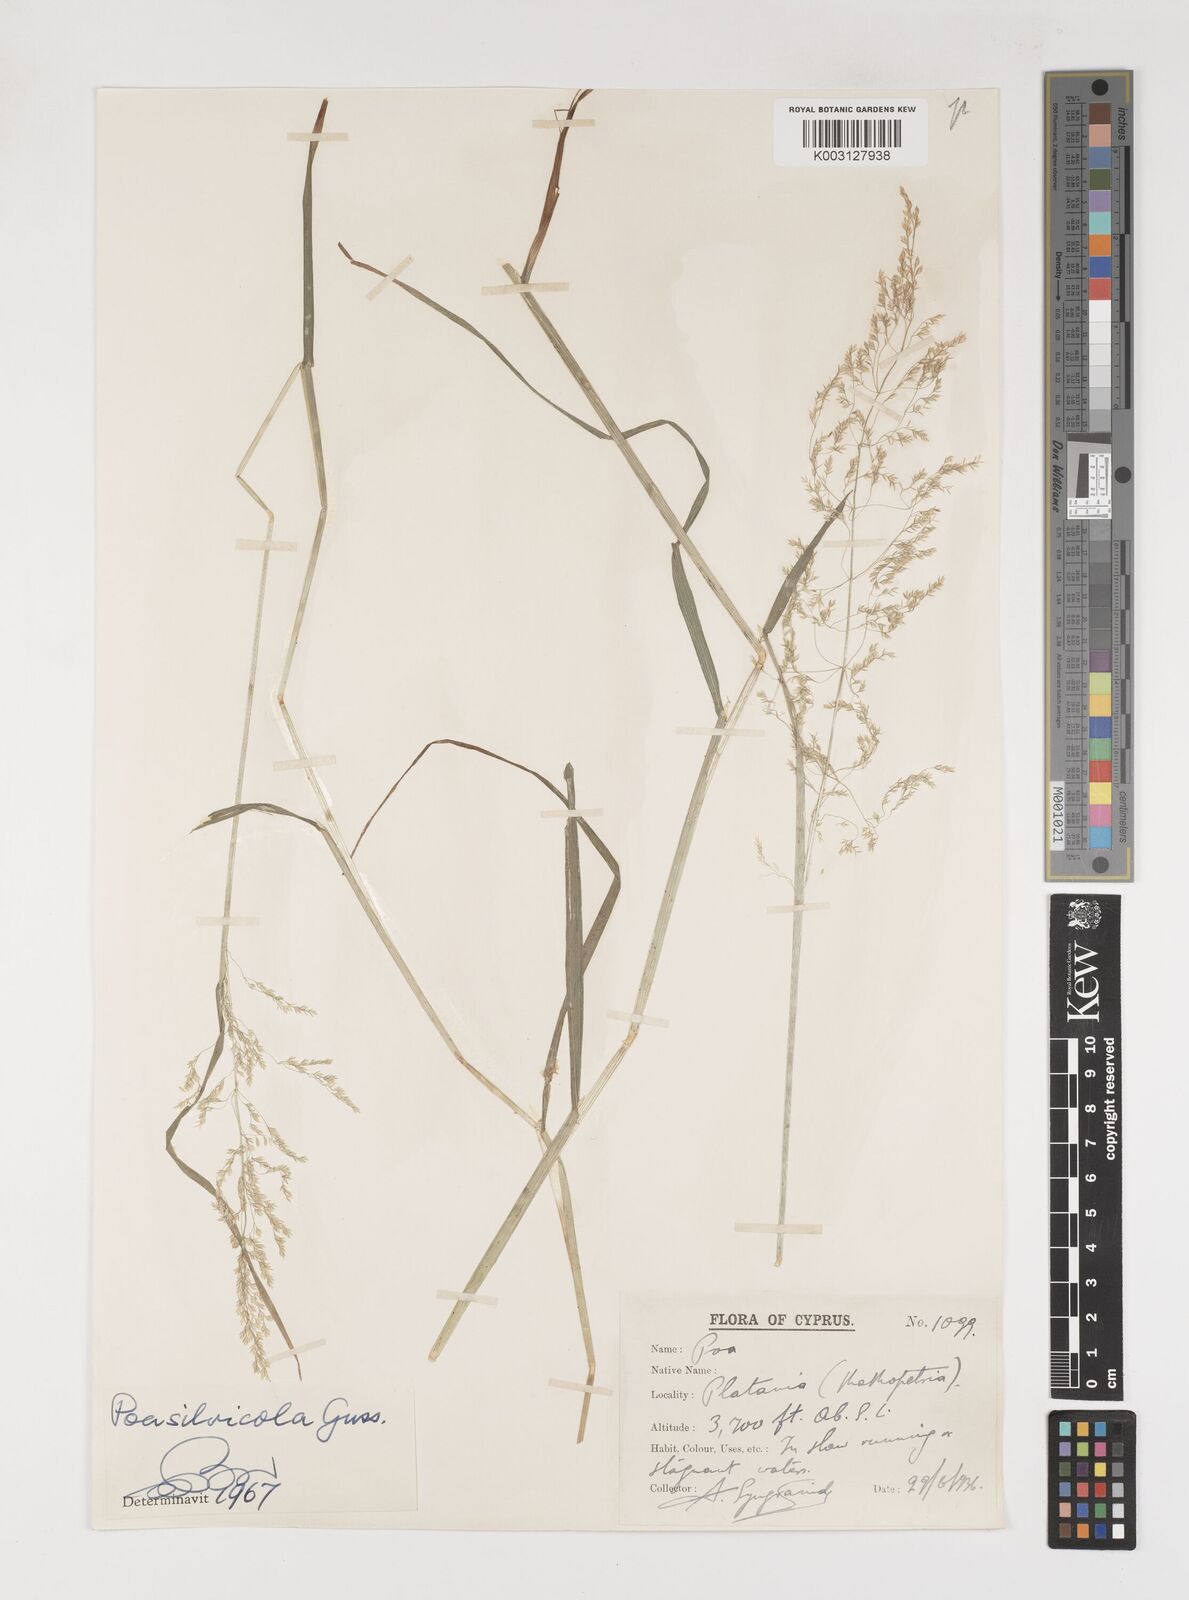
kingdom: Plantae
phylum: Tracheophyta
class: Liliopsida
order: Poales
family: Poaceae
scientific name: Poaceae
